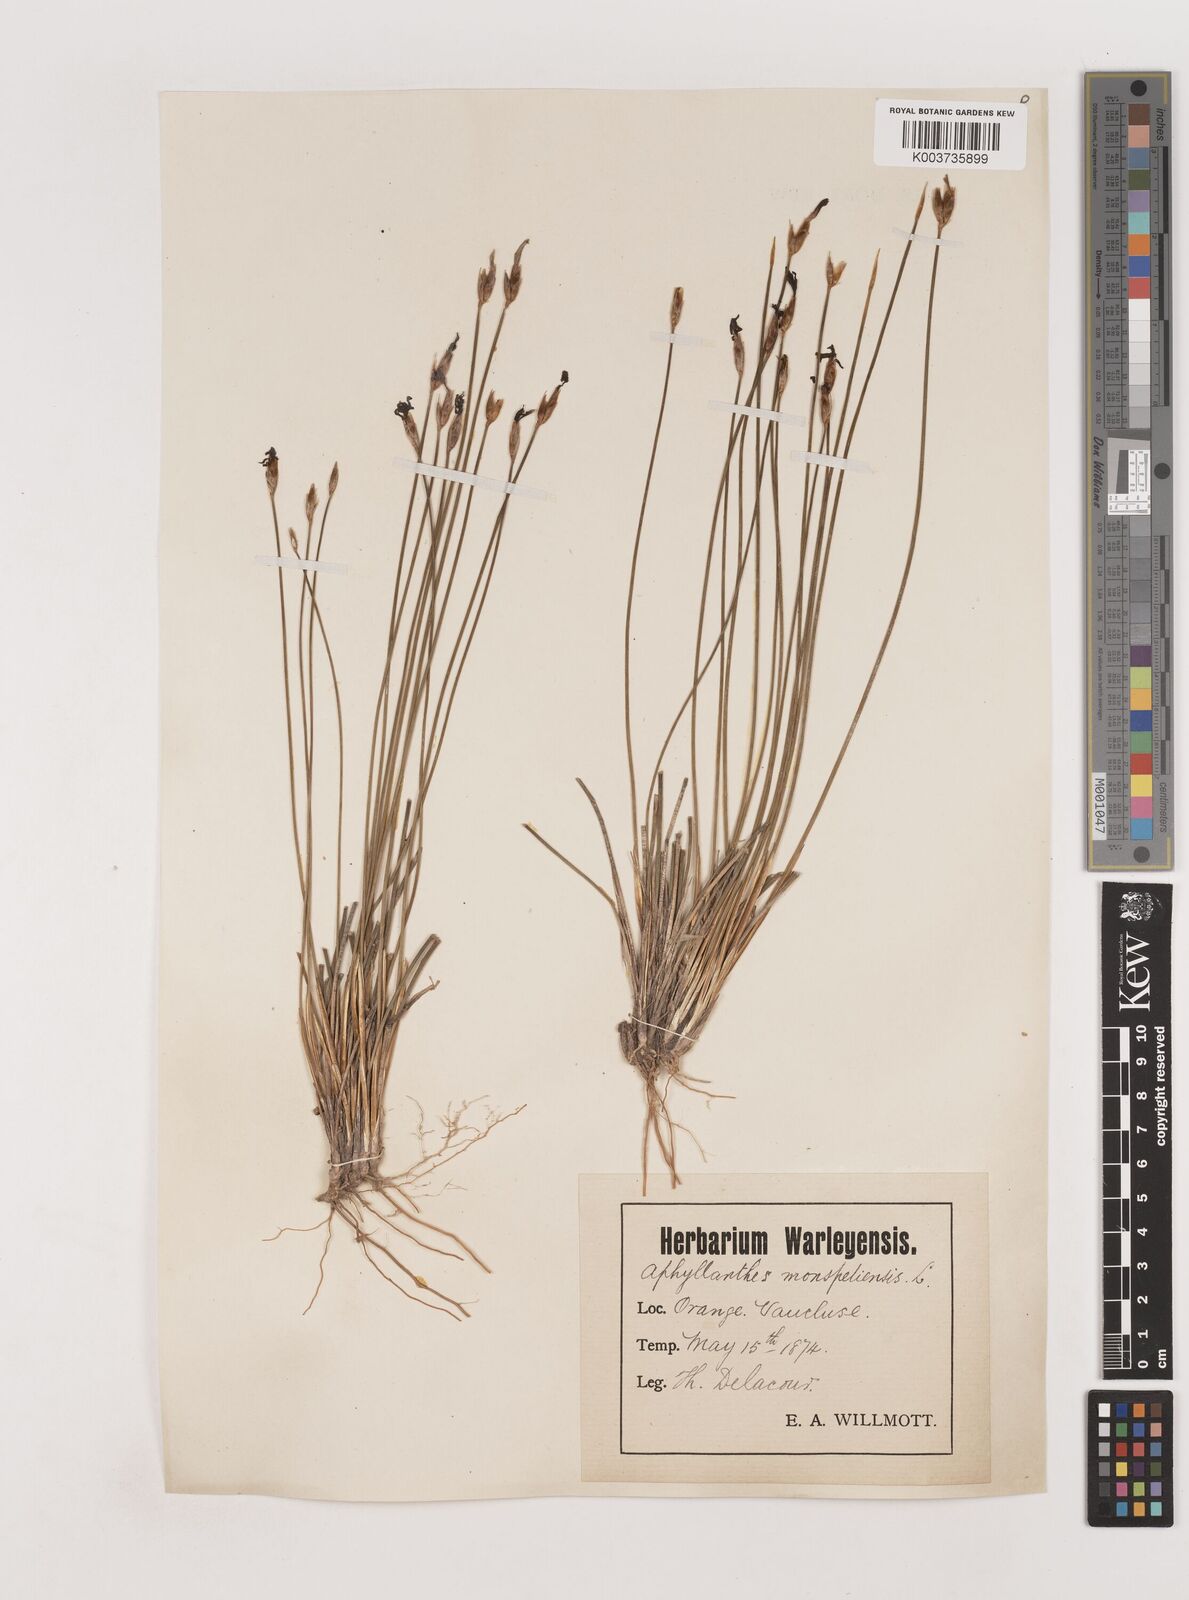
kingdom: Plantae
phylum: Tracheophyta
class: Liliopsida
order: Asparagales
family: Asparagaceae
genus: Aphyllanthes
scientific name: Aphyllanthes monspeliensis
